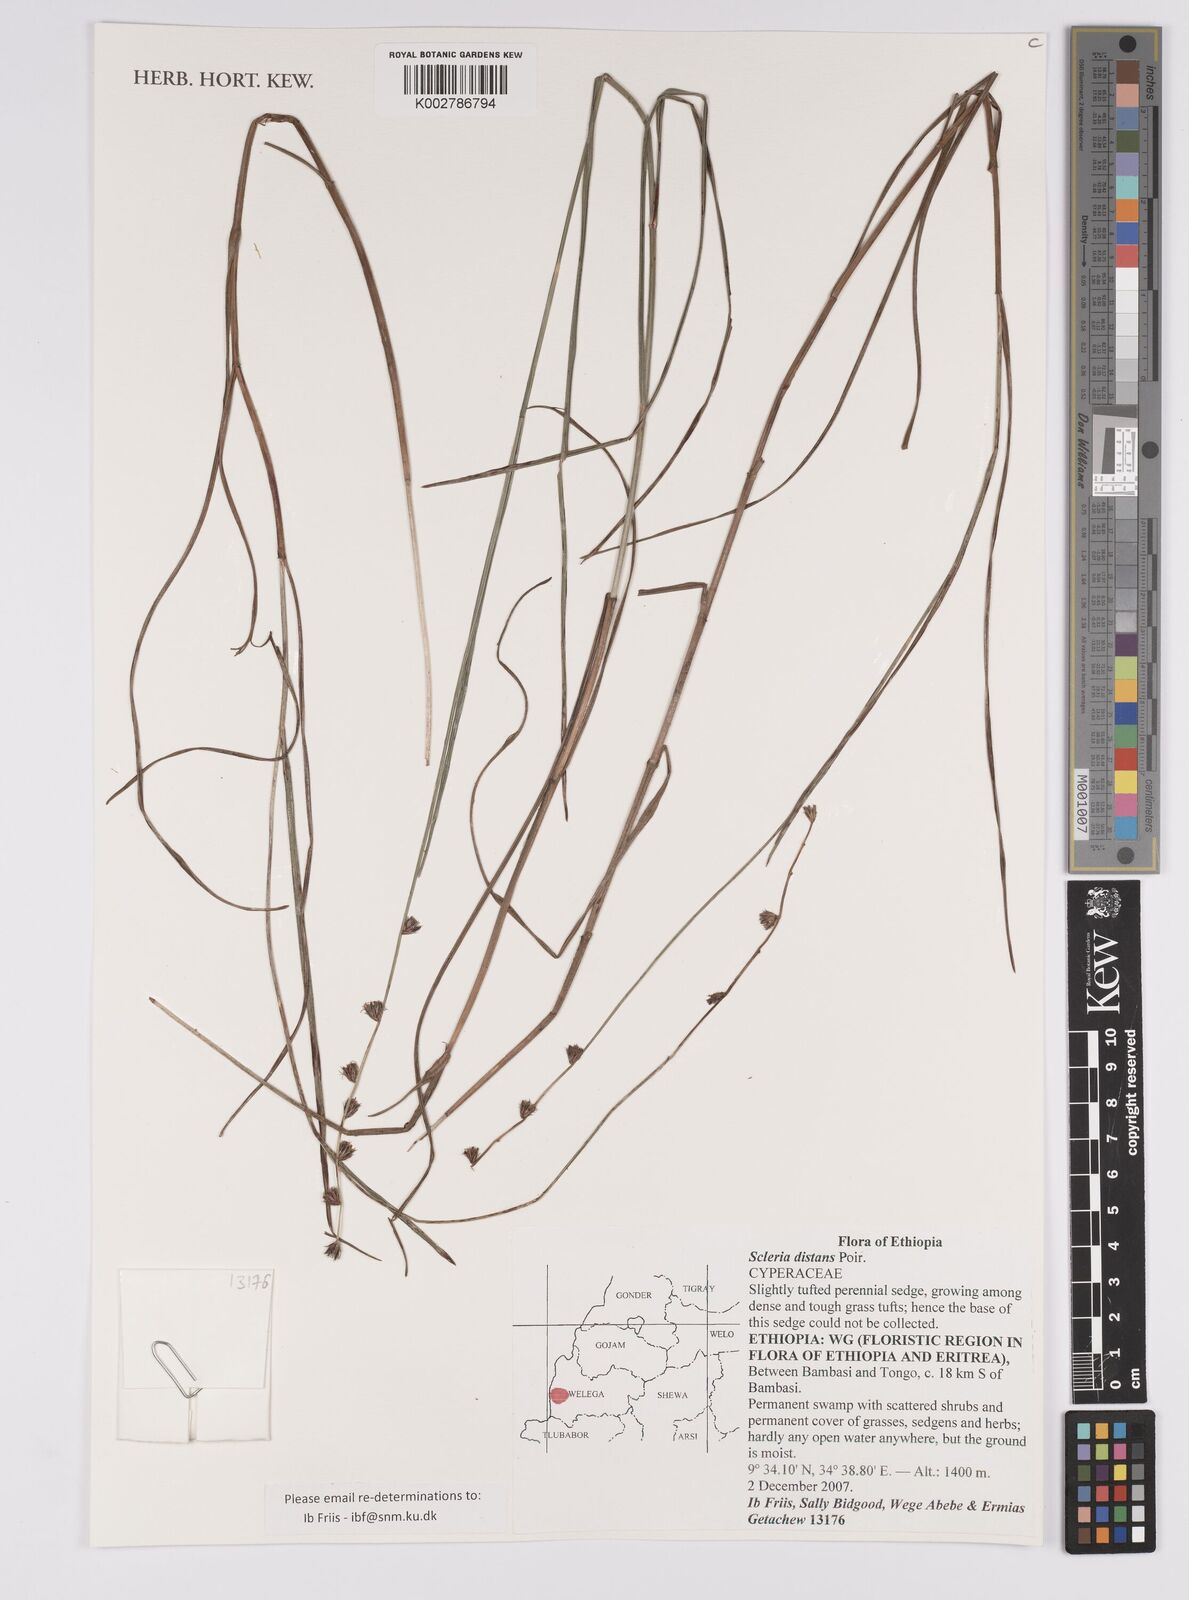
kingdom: Plantae
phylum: Tracheophyta
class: Liliopsida
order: Poales
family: Cyperaceae
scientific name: Cyperaceae
